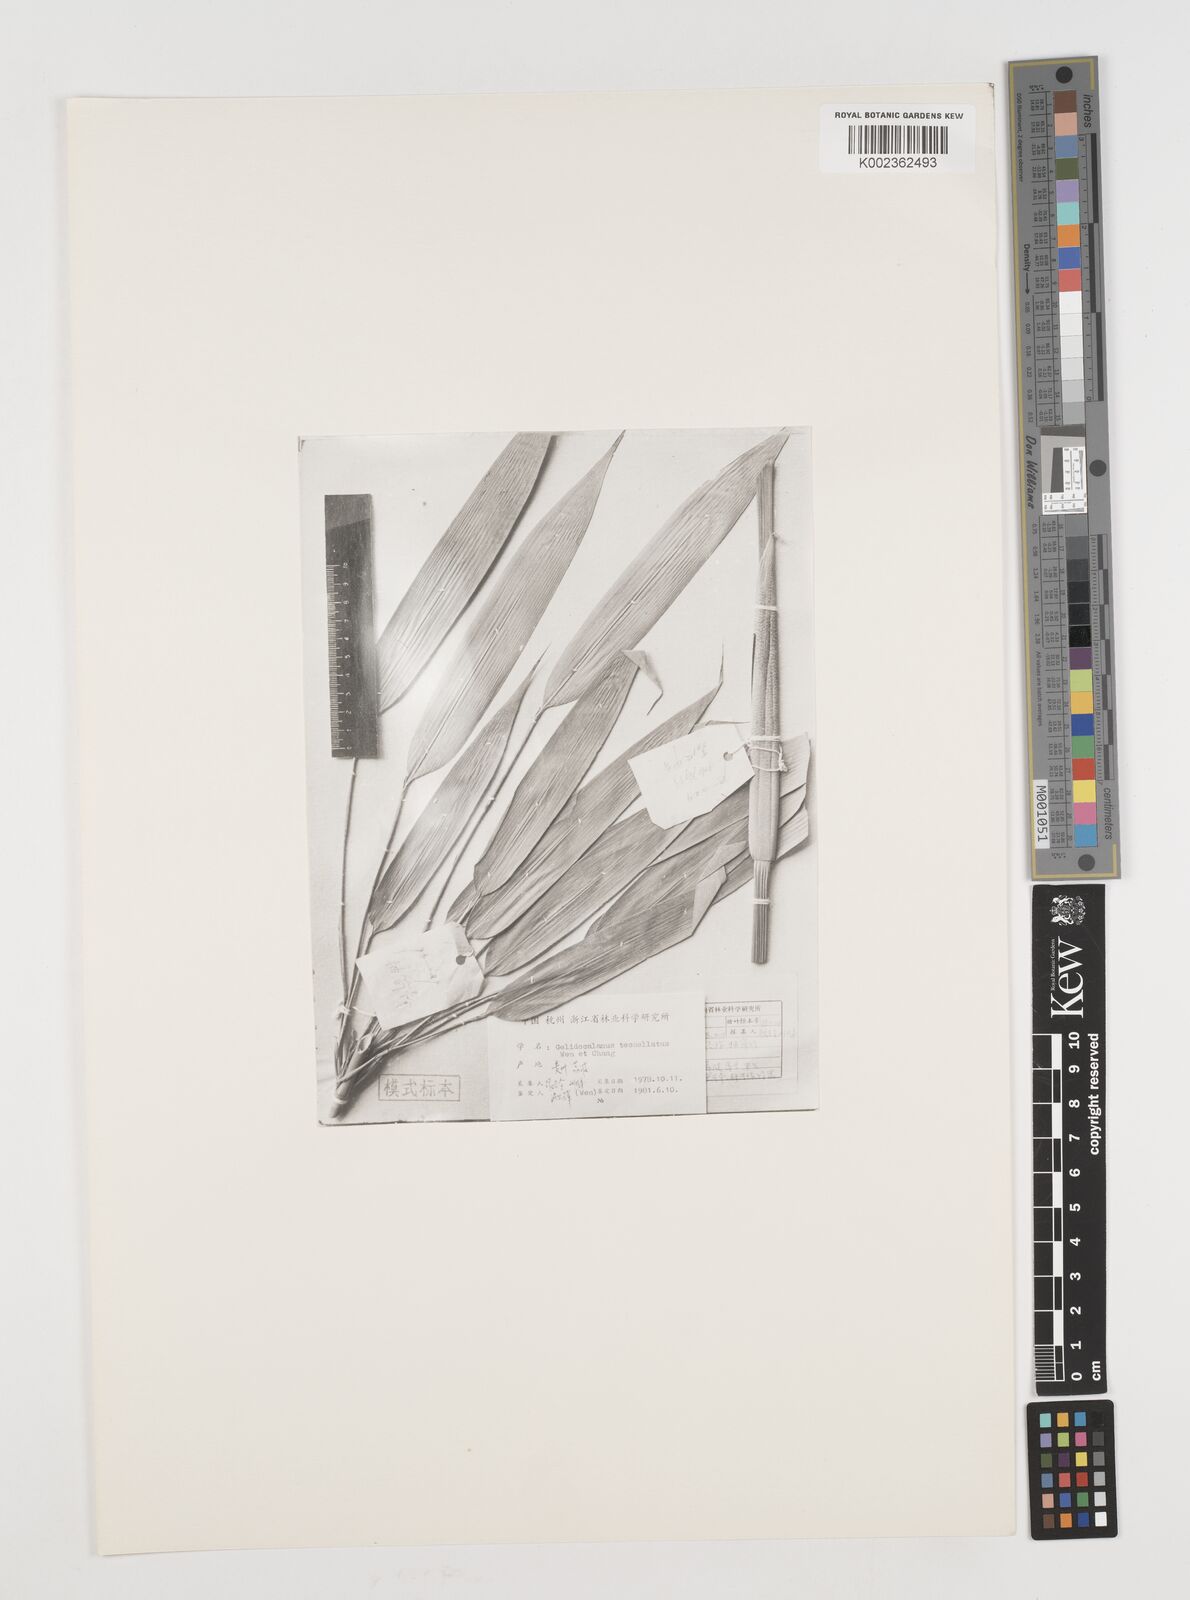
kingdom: Plantae
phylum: Tracheophyta
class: Liliopsida
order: Poales
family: Poaceae
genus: Gelidocalamus
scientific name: Gelidocalamus tessellatus
